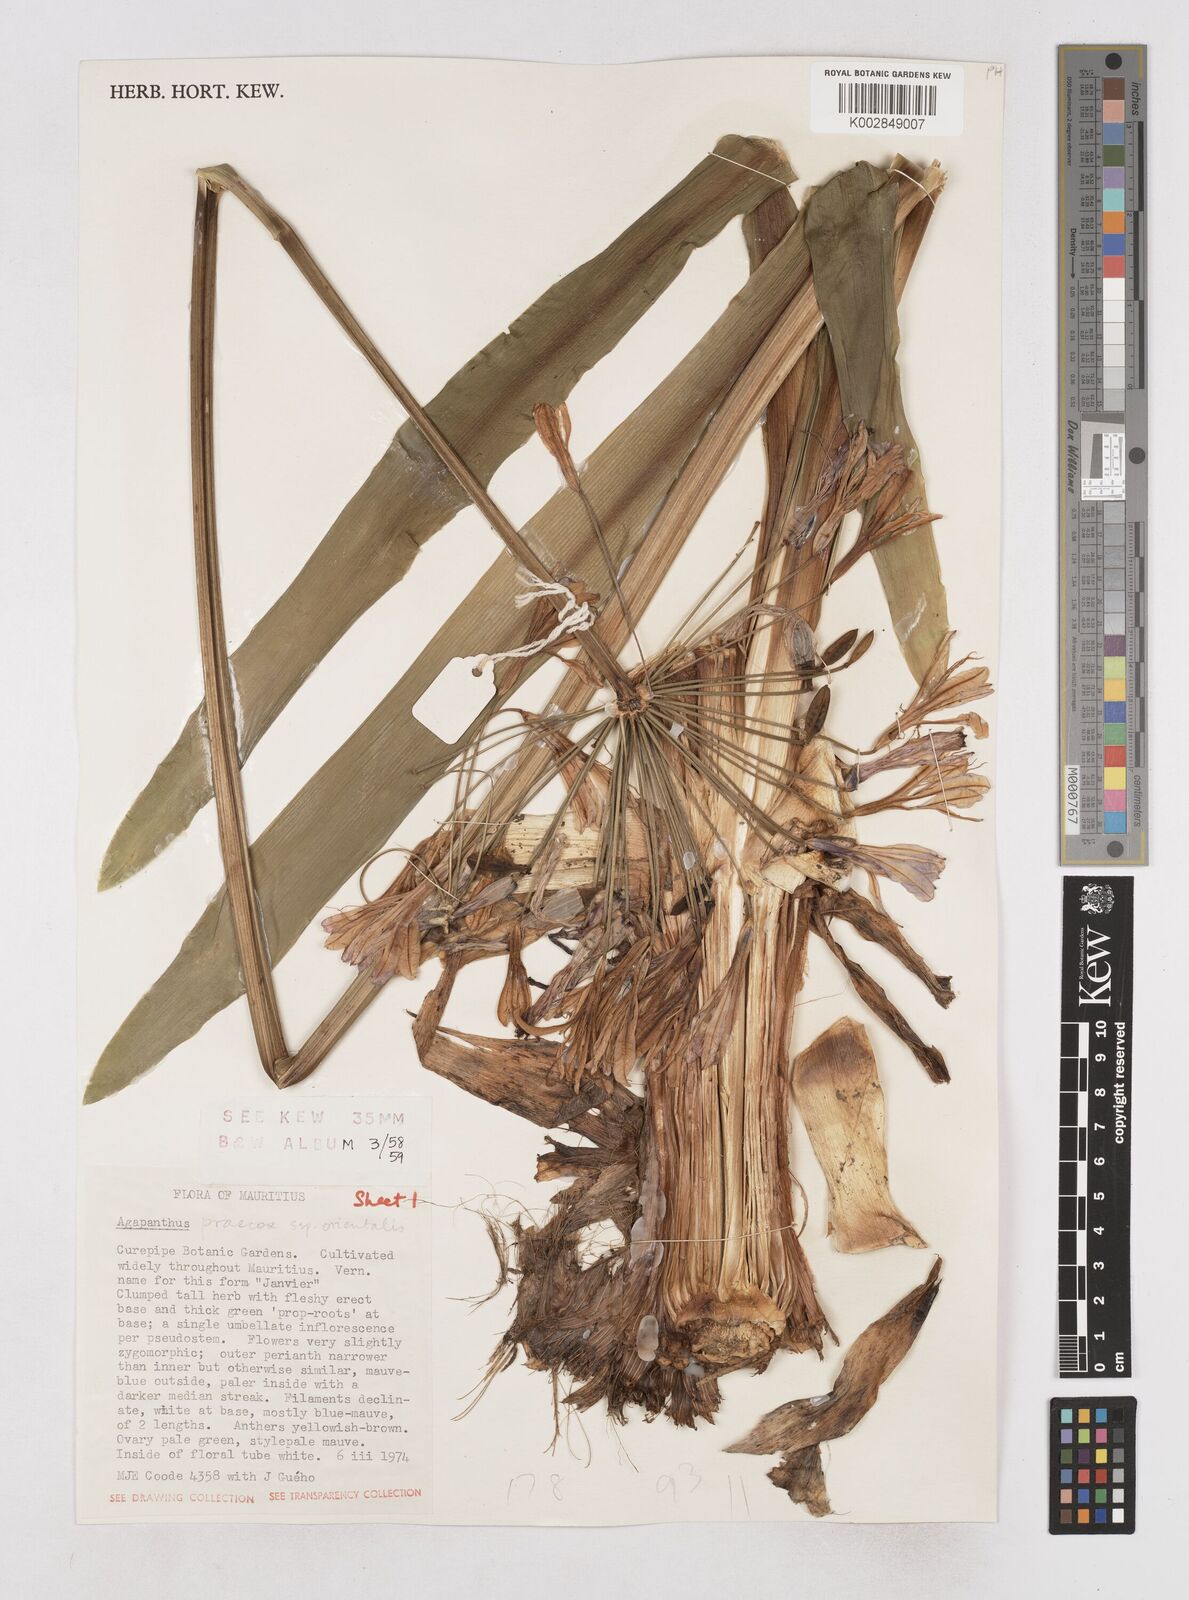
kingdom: Plantae
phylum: Tracheophyta
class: Liliopsida
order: Asparagales
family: Amaryllidaceae
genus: Agapanthus
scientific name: Agapanthus praecox
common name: African-lily
